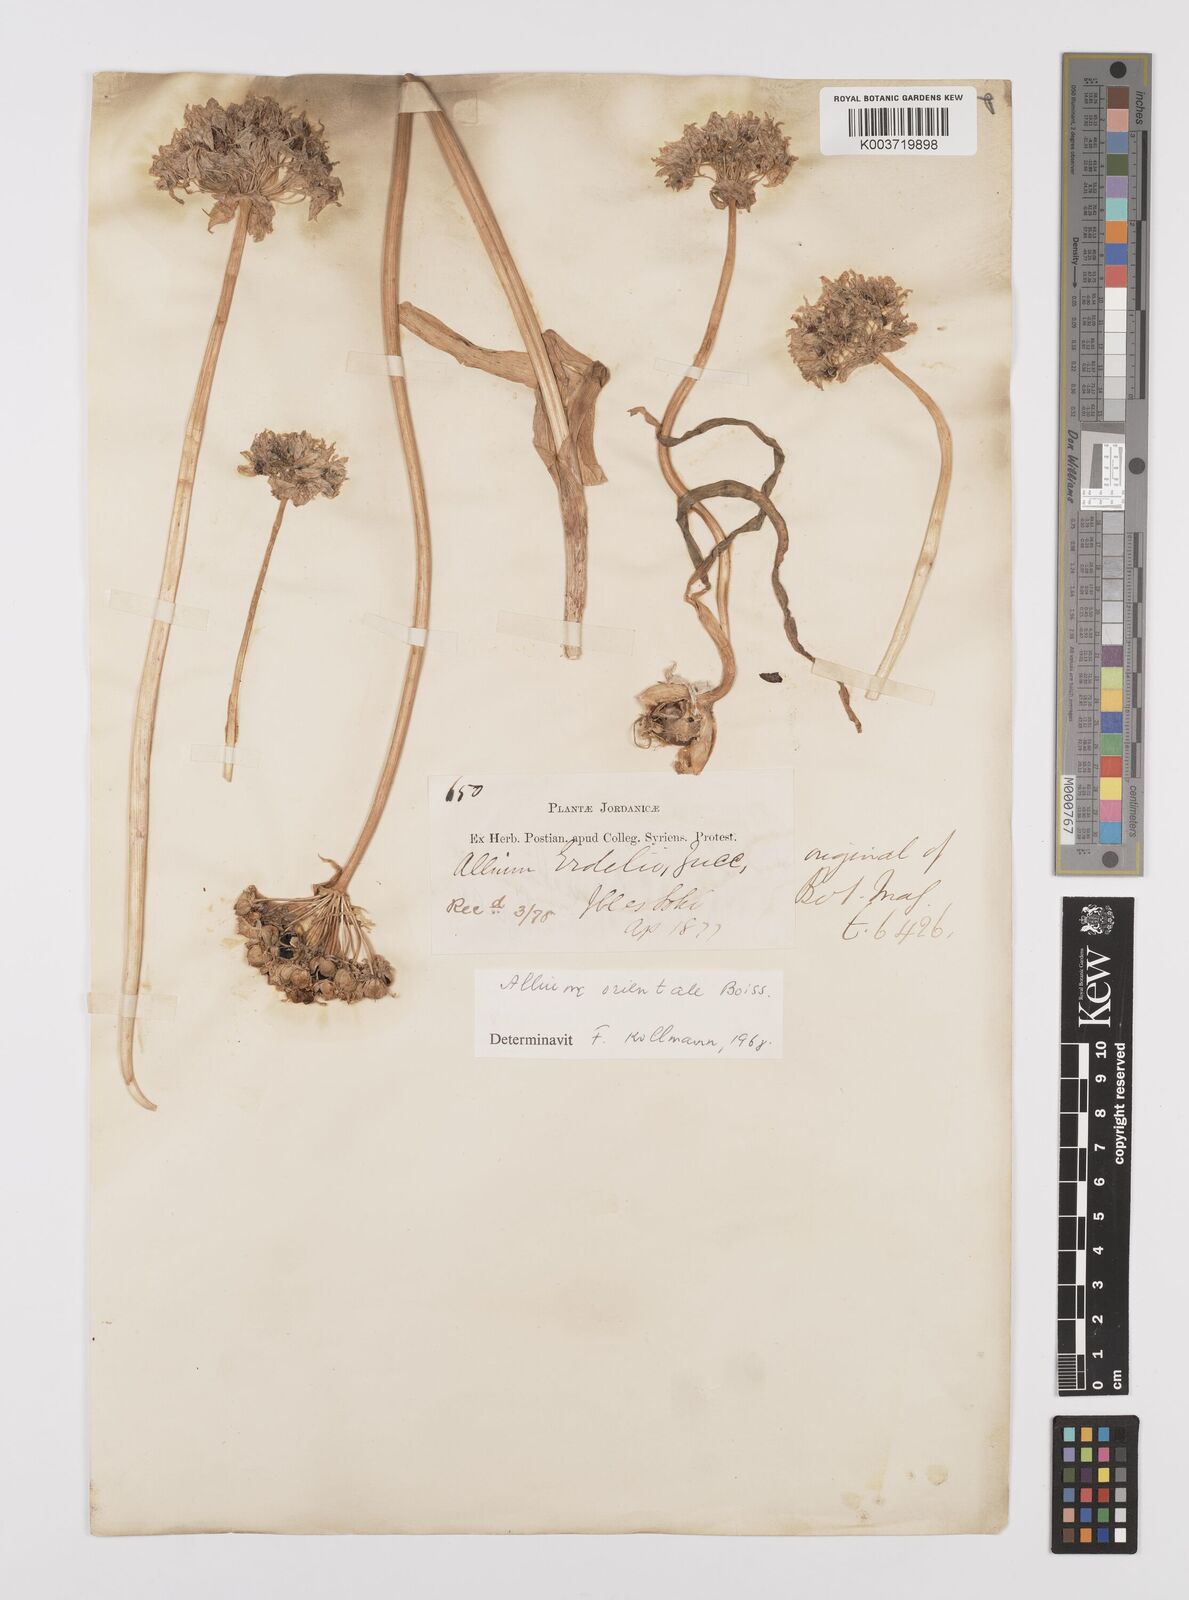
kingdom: Plantae
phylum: Tracheophyta
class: Liliopsida
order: Asparagales
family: Amaryllidaceae
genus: Allium
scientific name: Allium orientale
